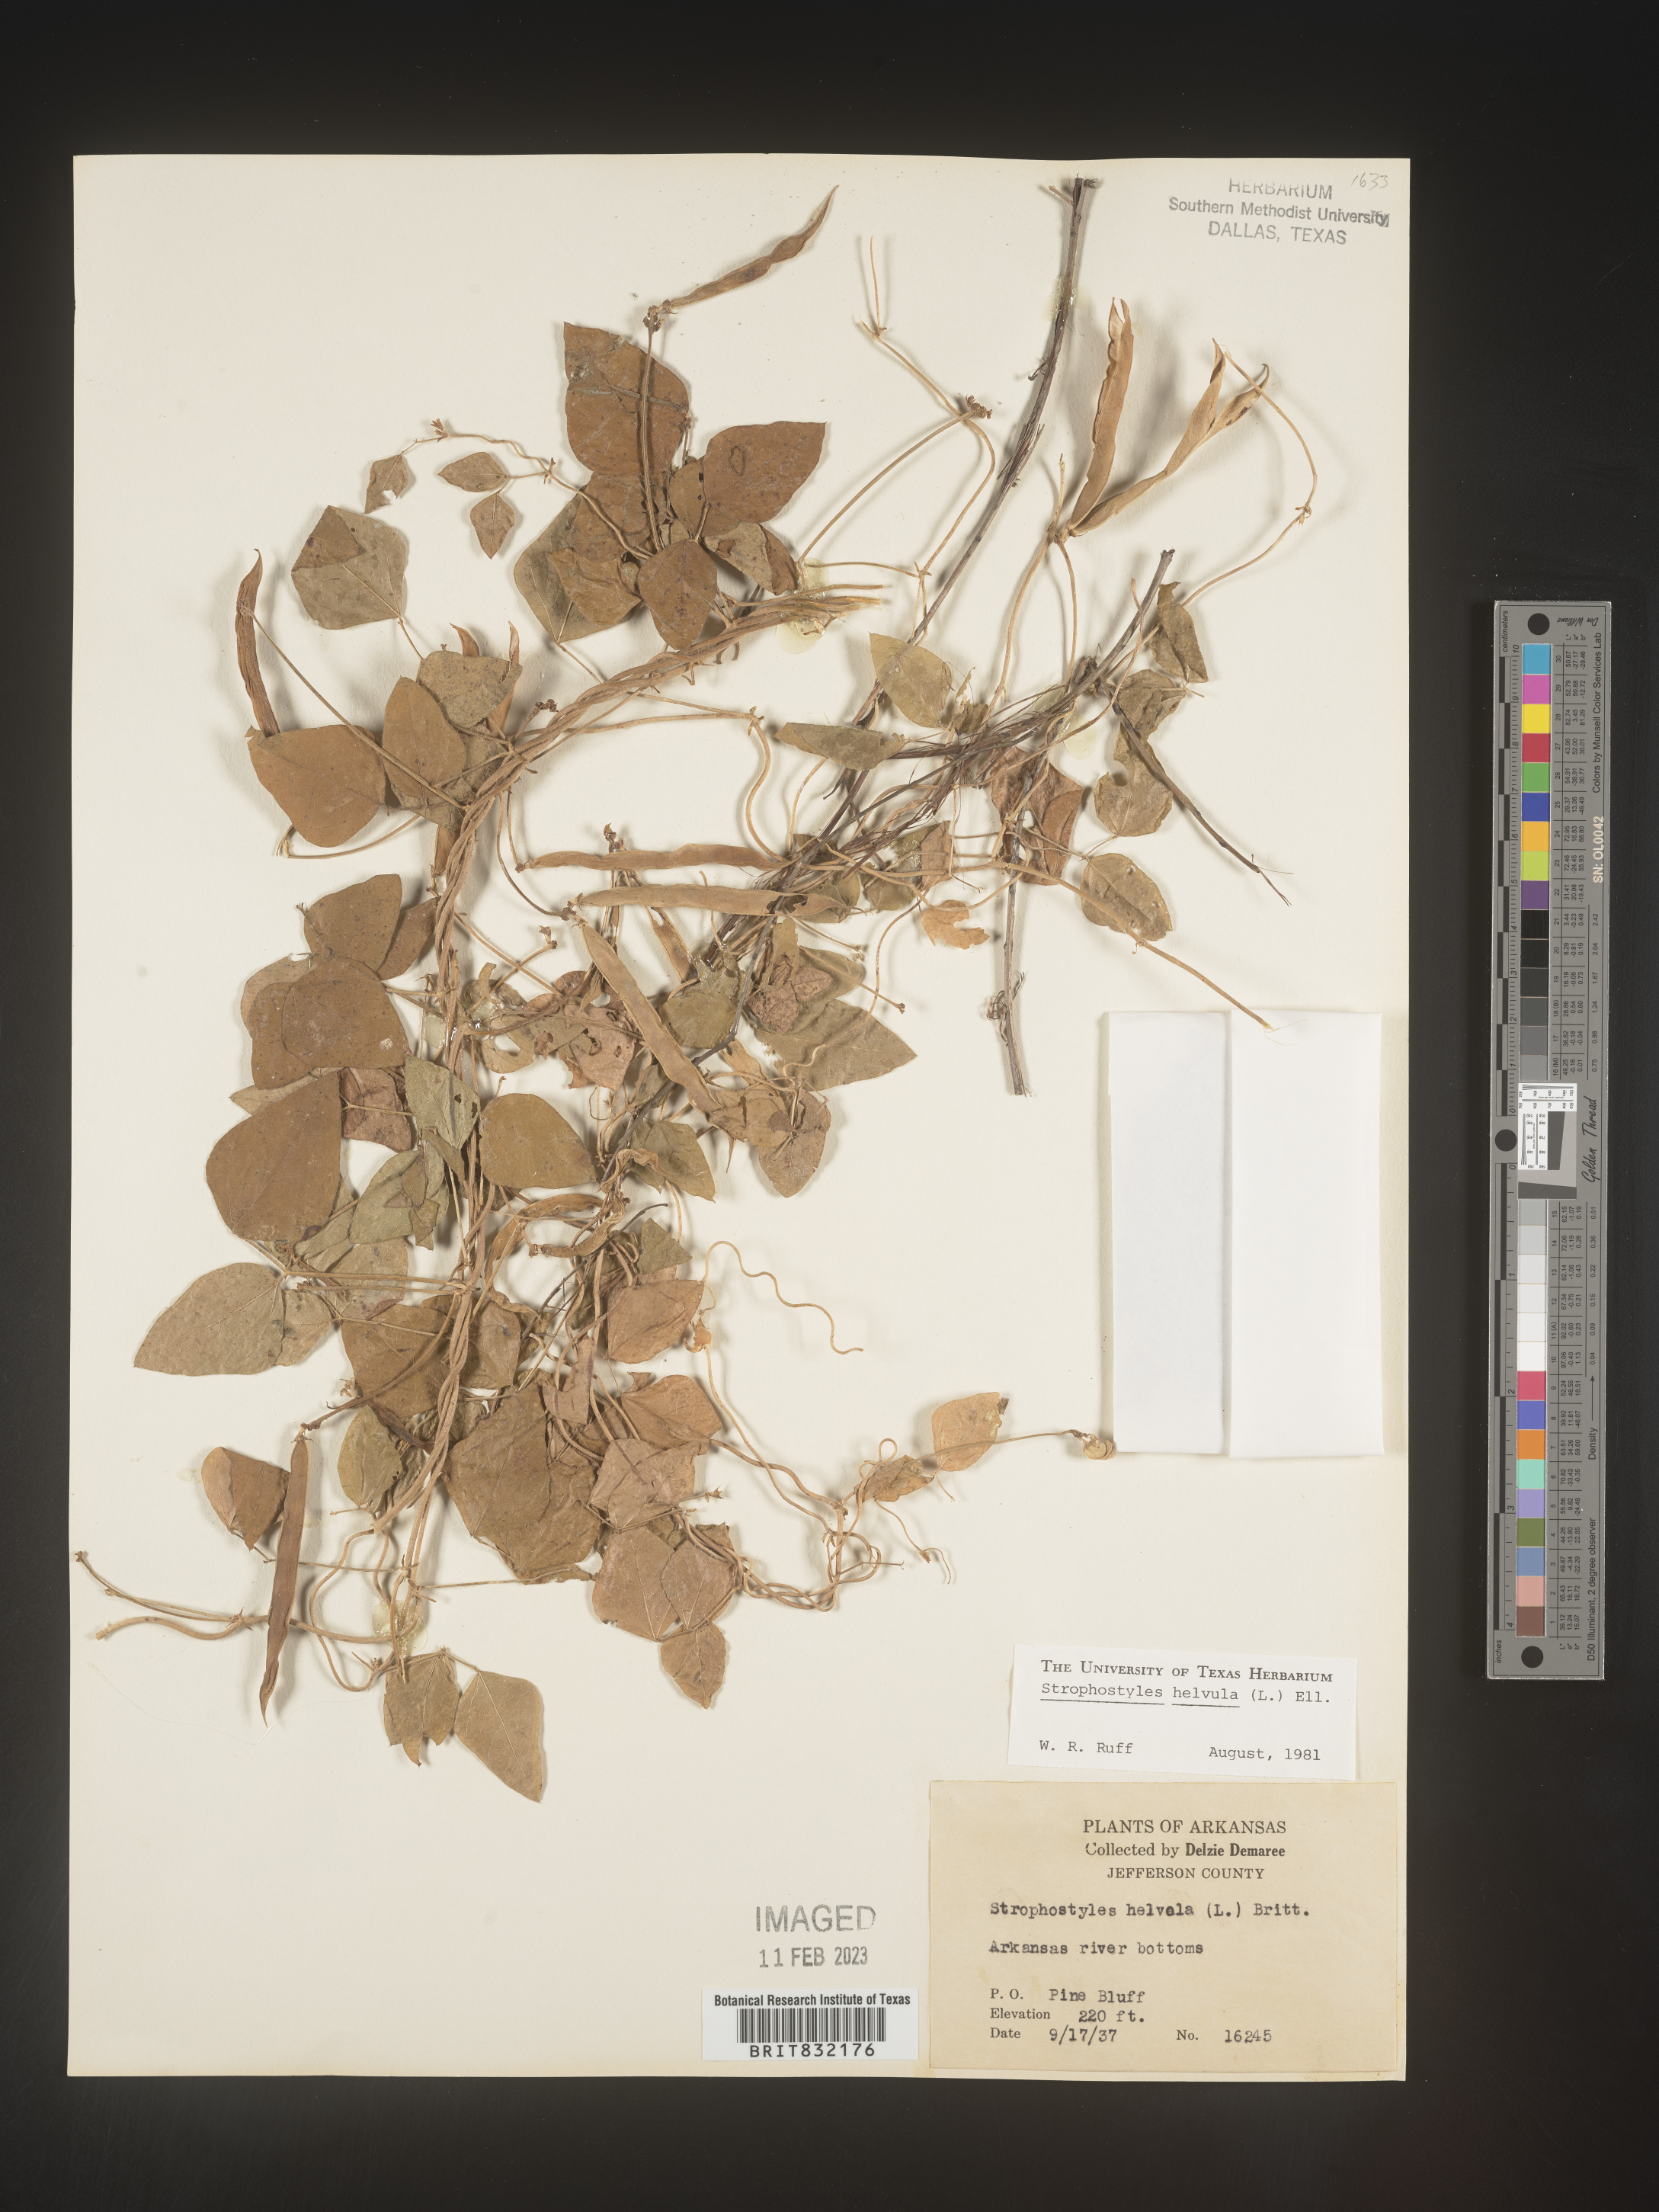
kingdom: Plantae
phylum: Tracheophyta
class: Magnoliopsida
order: Fabales
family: Fabaceae
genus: Strophostyles
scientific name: Strophostyles helvola
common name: Trailing wild bean
